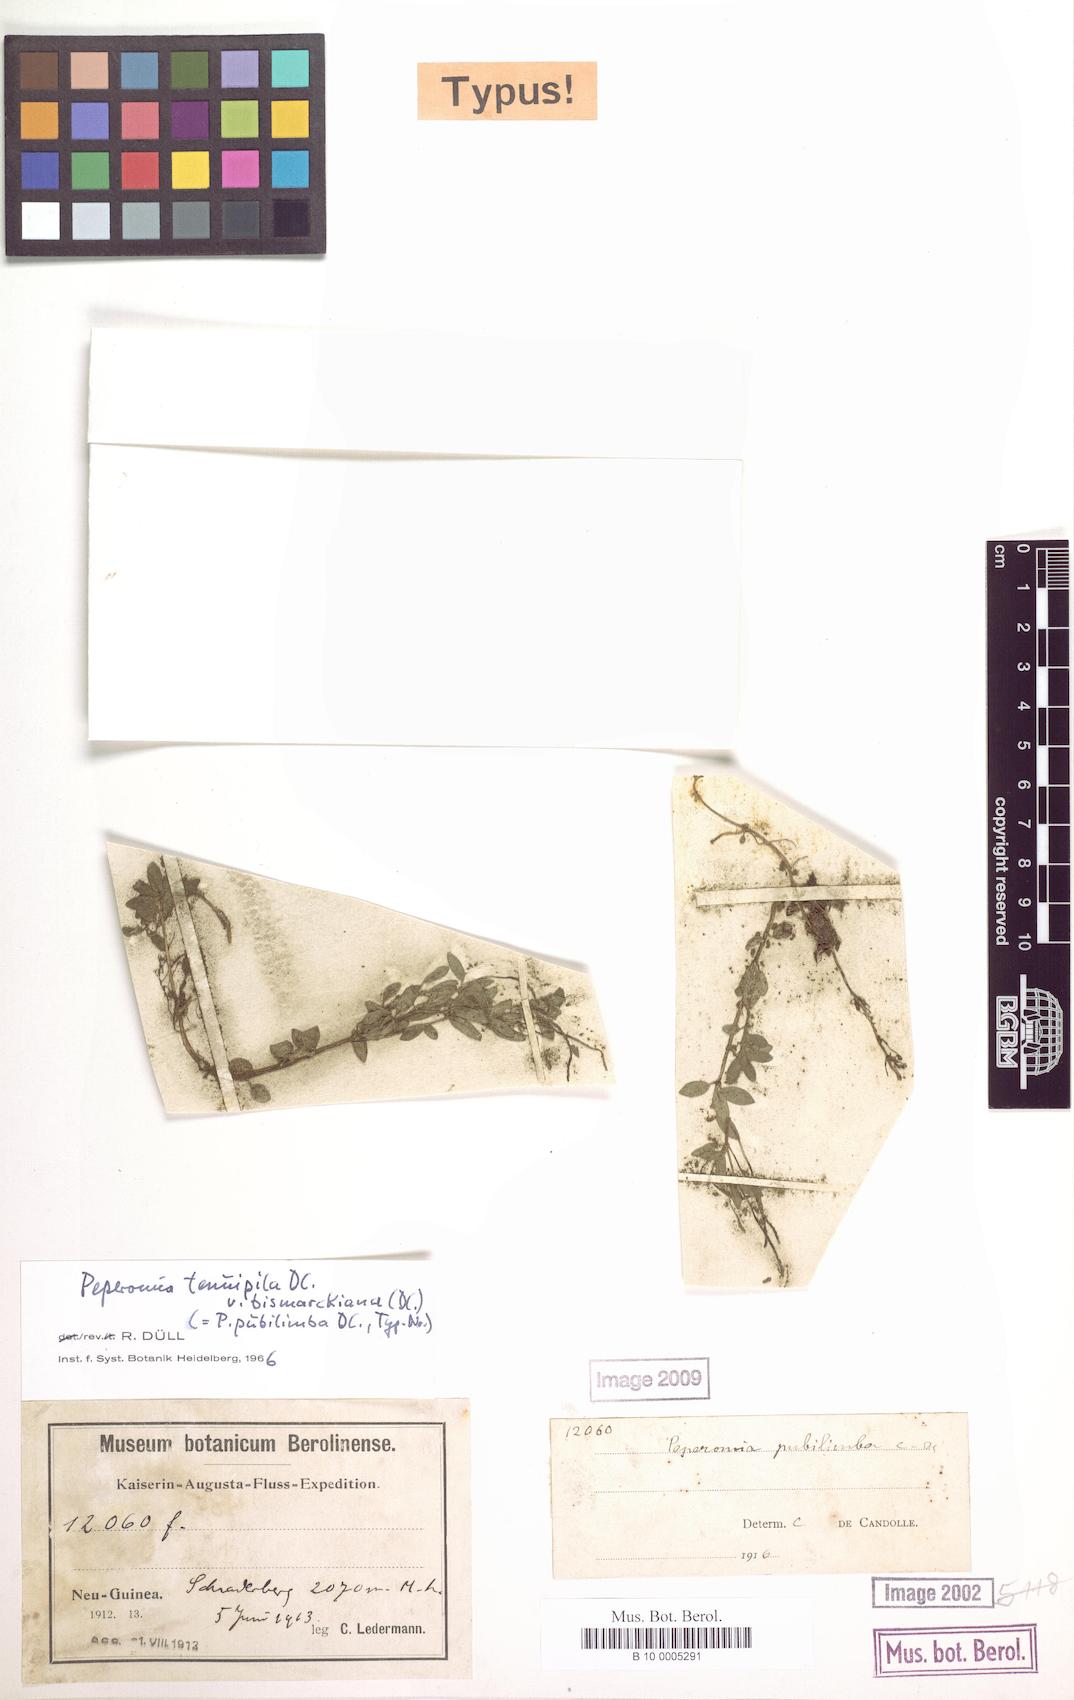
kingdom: Plantae
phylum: Tracheophyta
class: Magnoliopsida
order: Piperales
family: Piperaceae
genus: Peperomia
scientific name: Peperomia tenuipila
